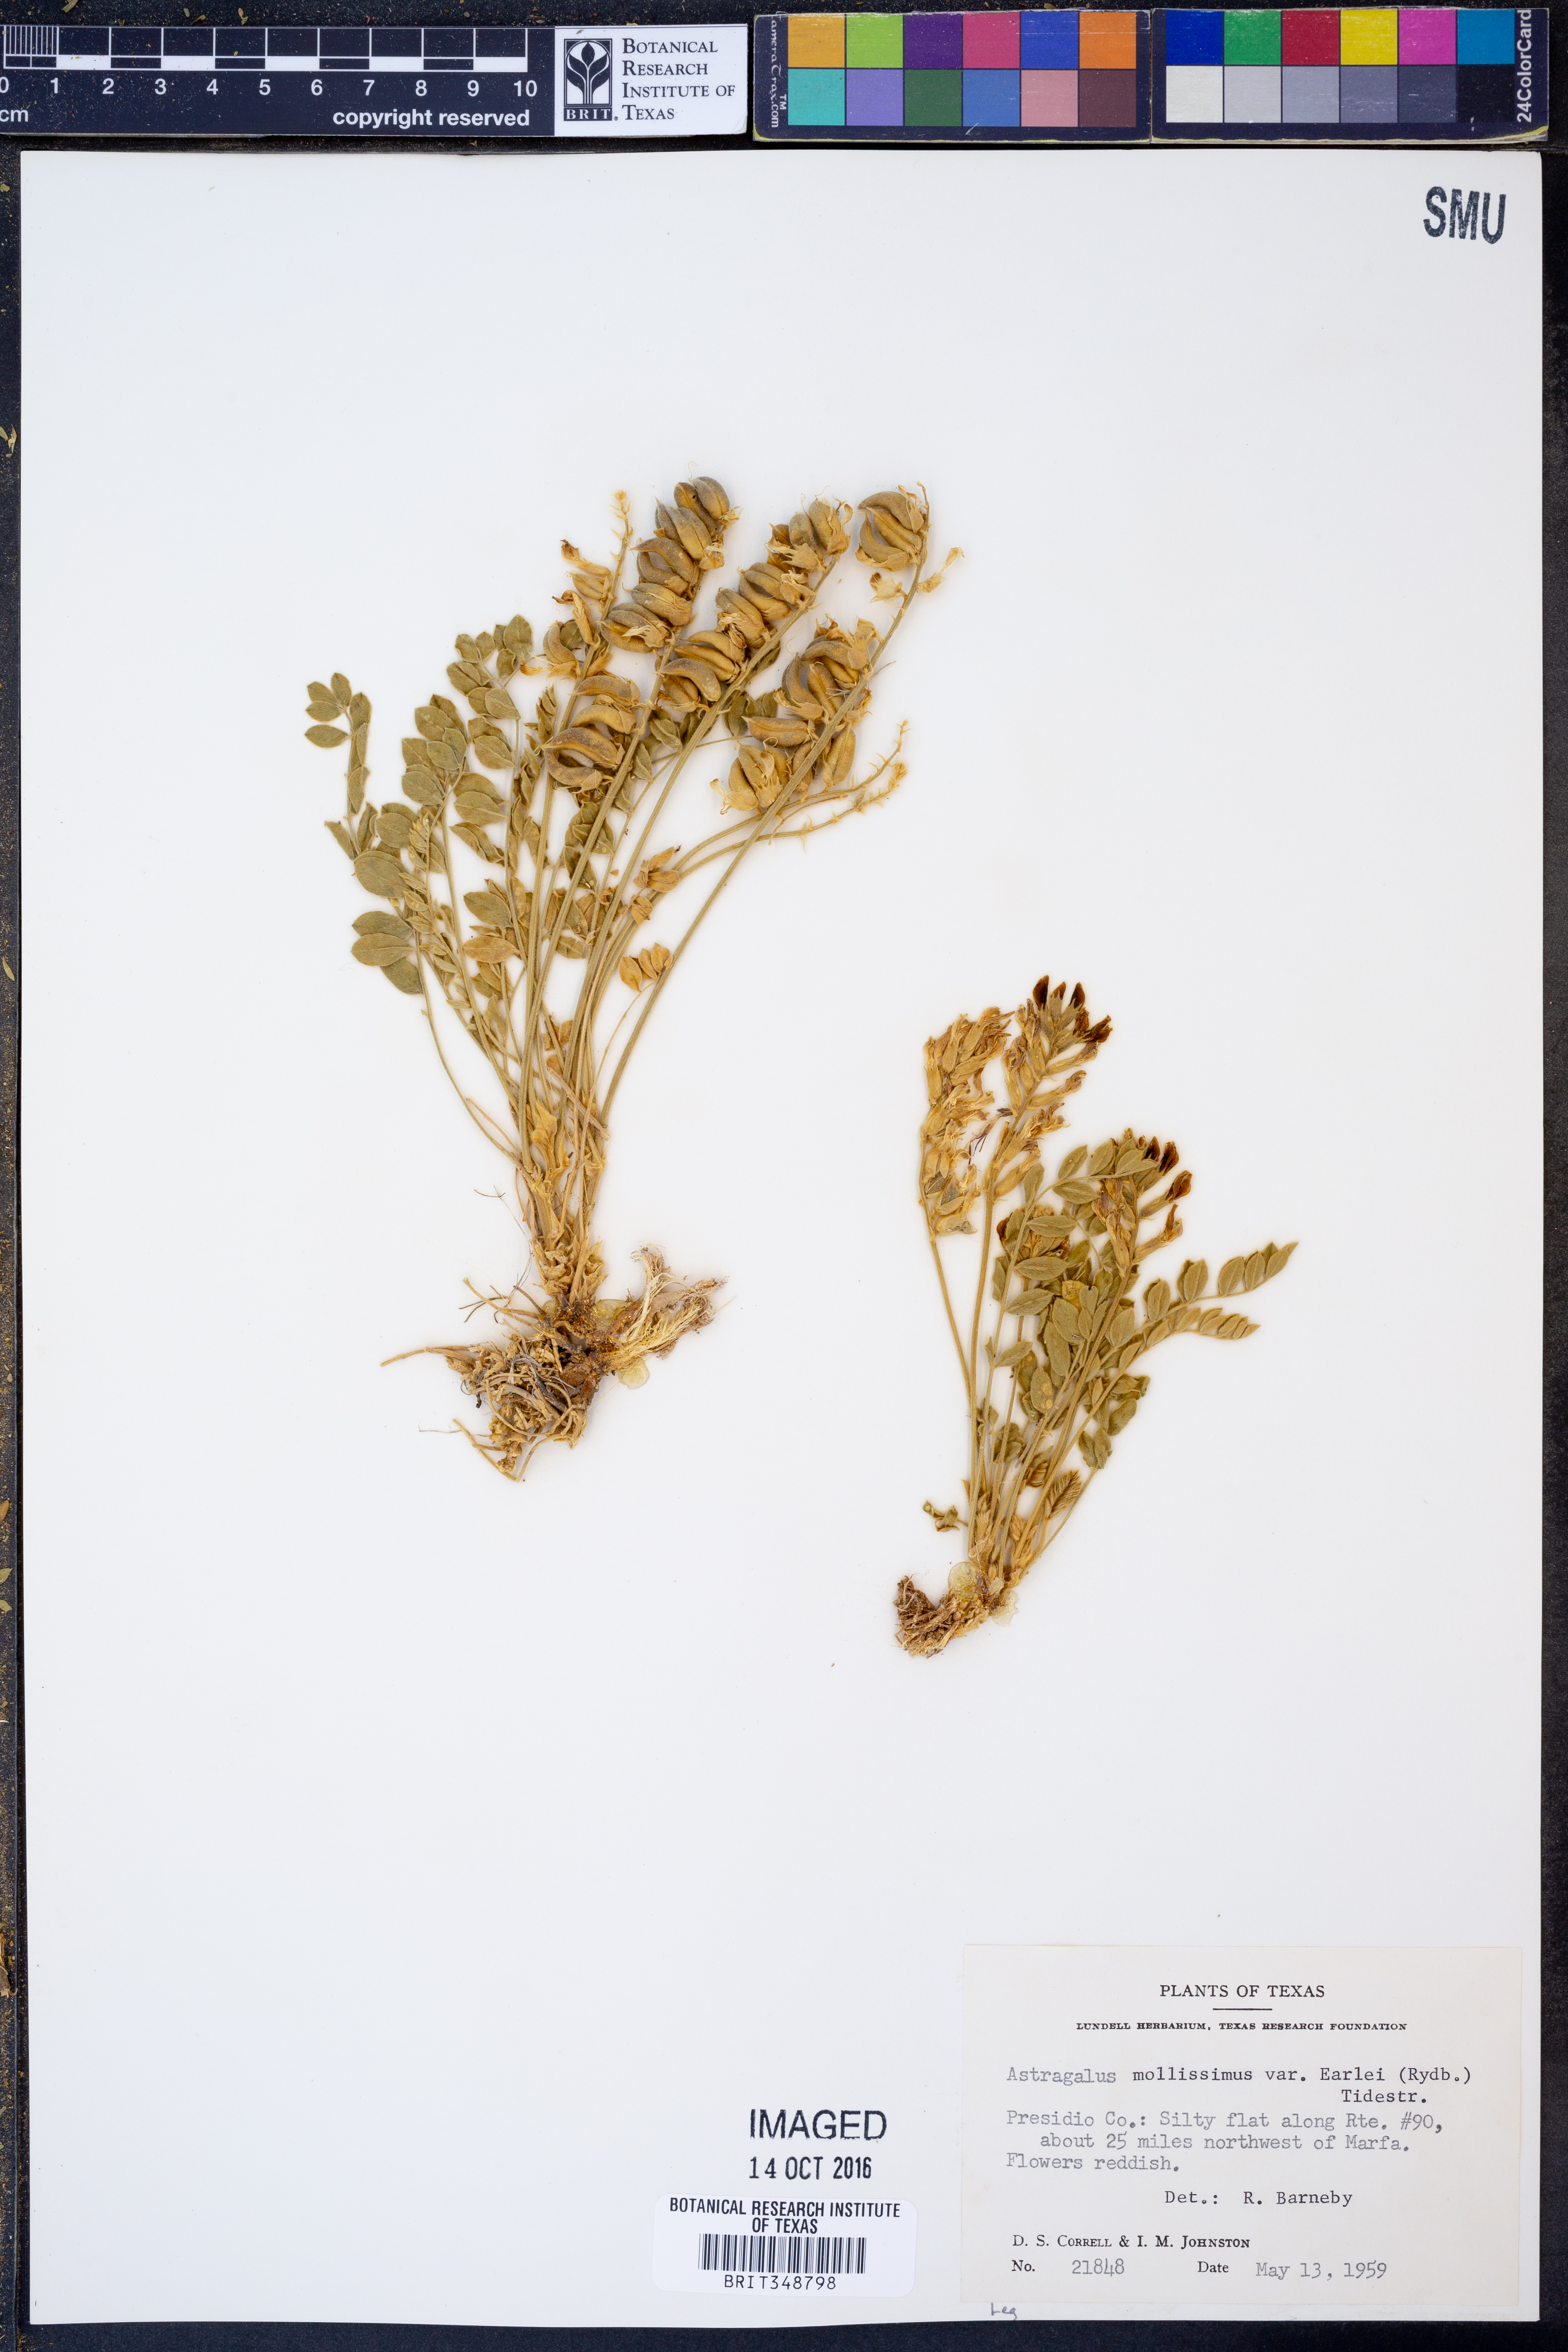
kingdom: Plantae
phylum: Tracheophyta
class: Magnoliopsida
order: Fabales
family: Fabaceae
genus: Astragalus
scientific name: Astragalus mollissimus
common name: Woolly locoweed
